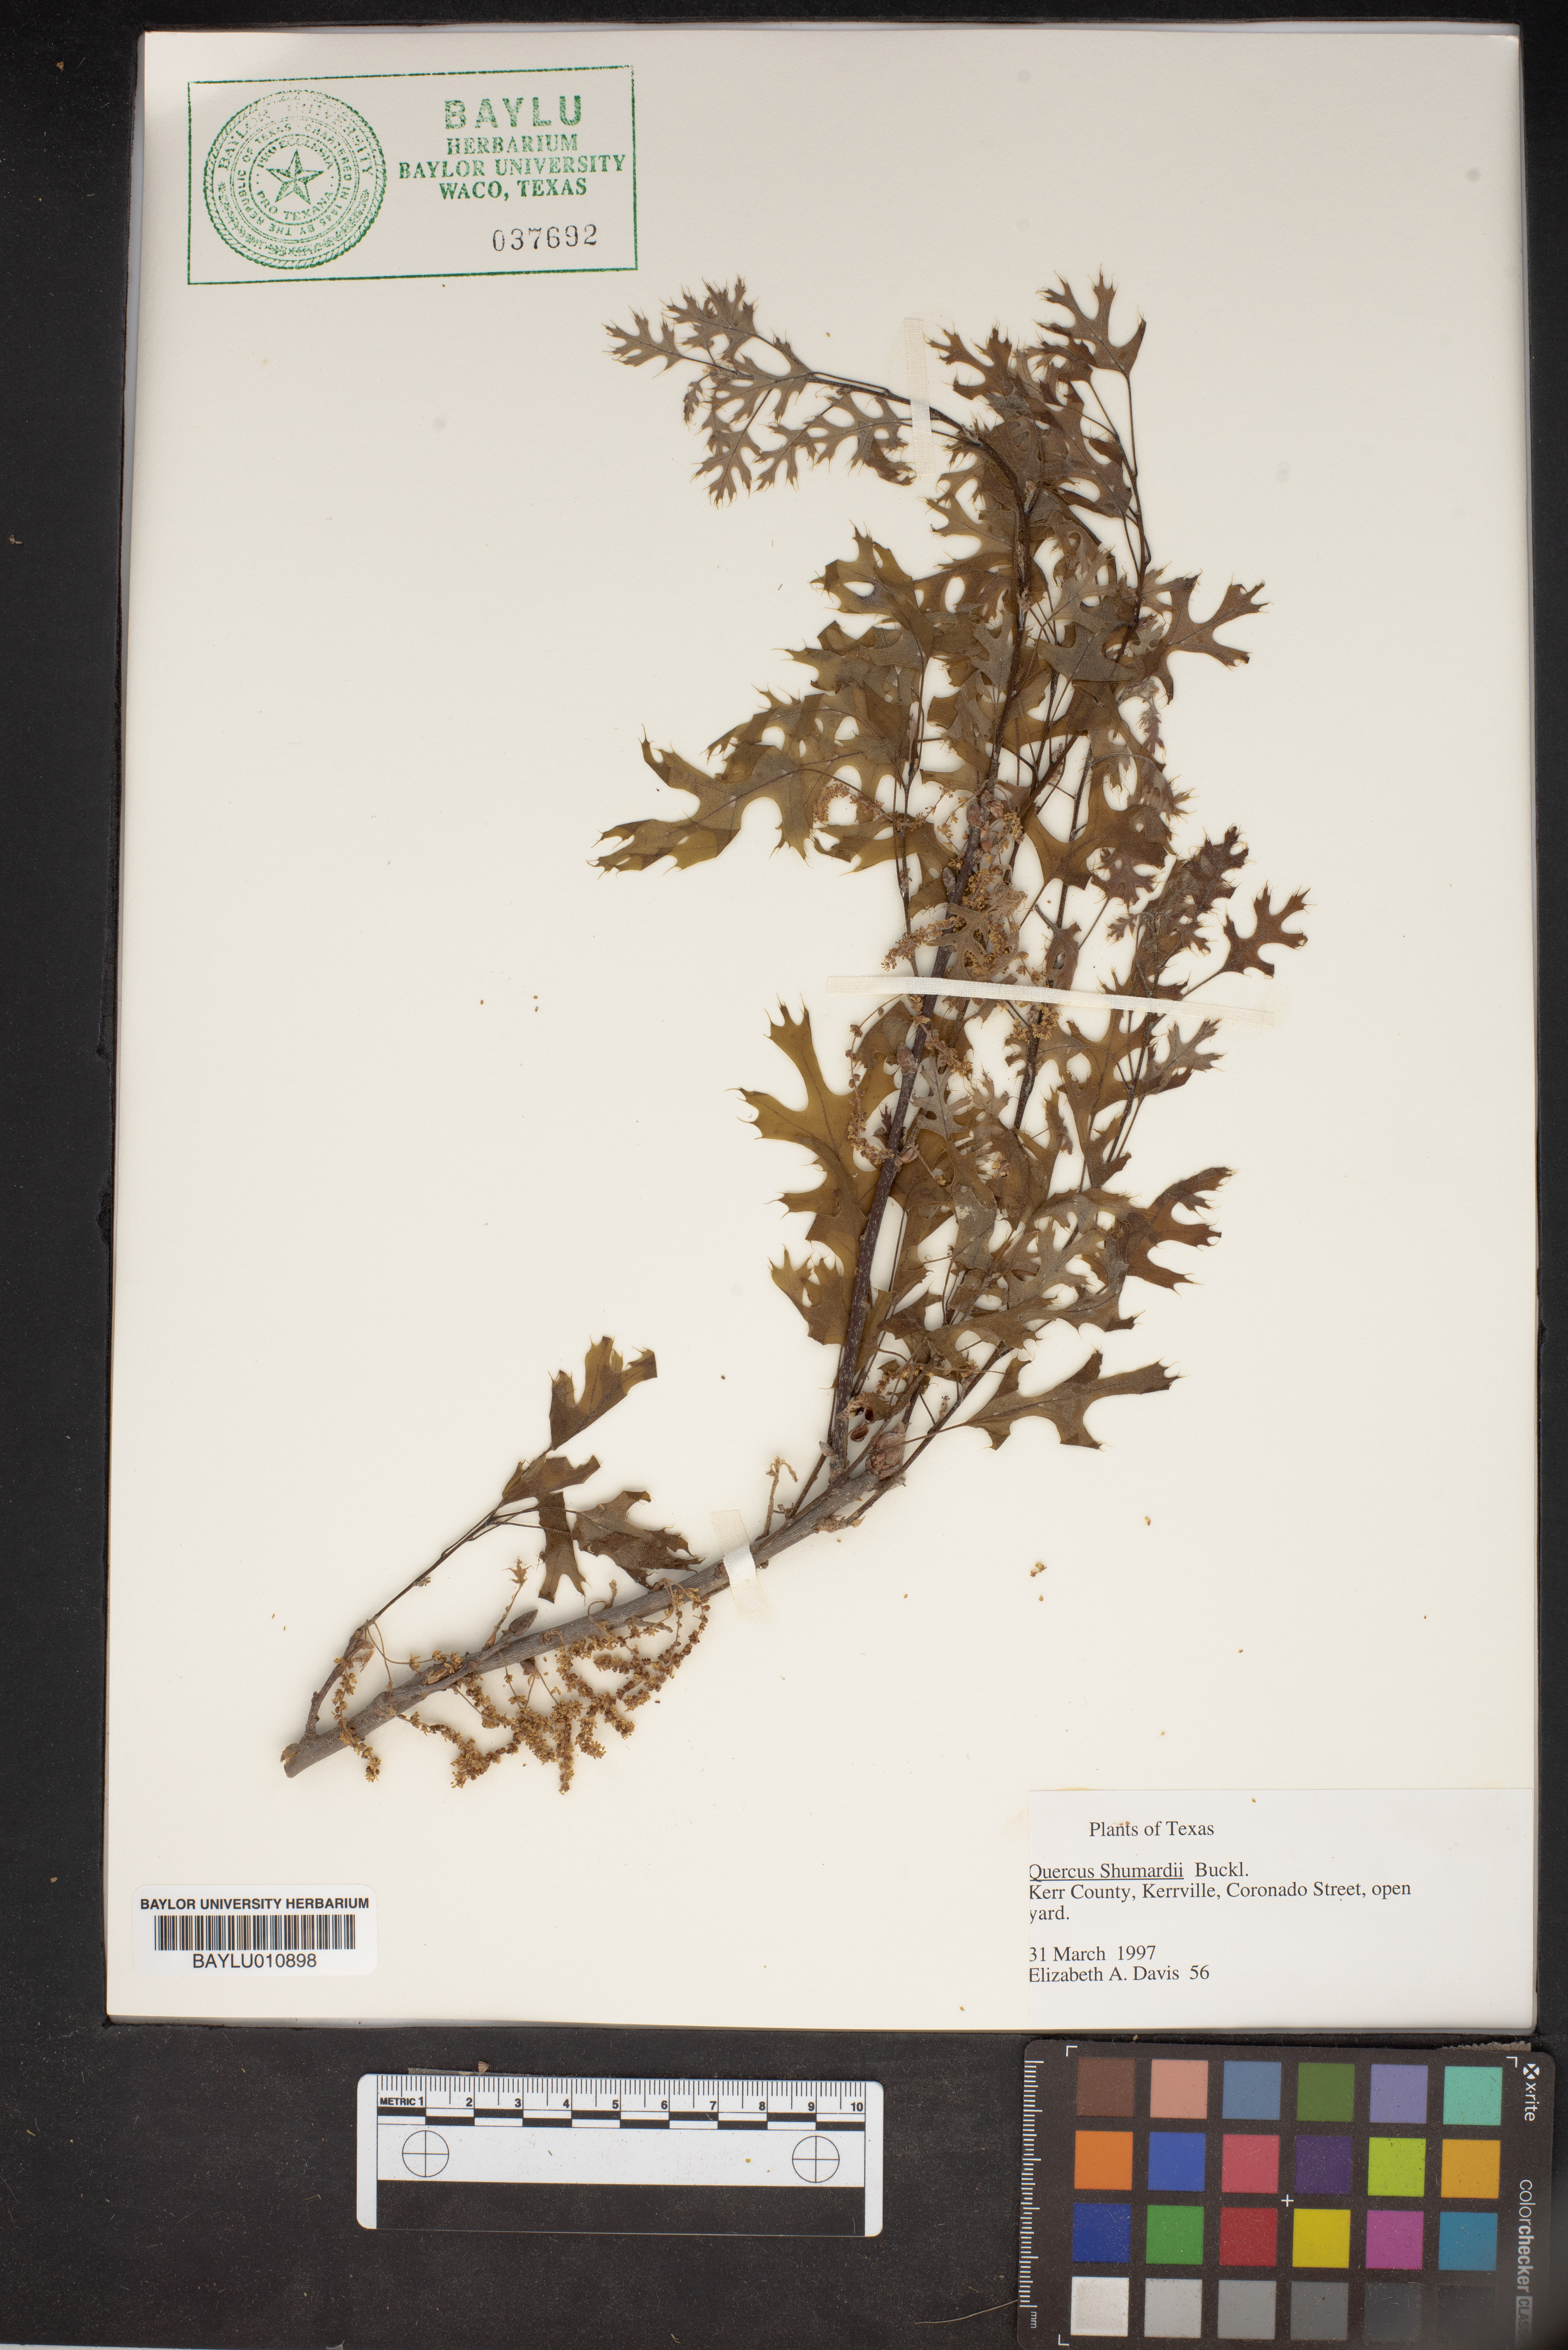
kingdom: Plantae
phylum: Tracheophyta
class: Magnoliopsida
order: Fagales
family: Fagaceae
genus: Quercus
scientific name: Quercus shumardii
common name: Shumard oak
